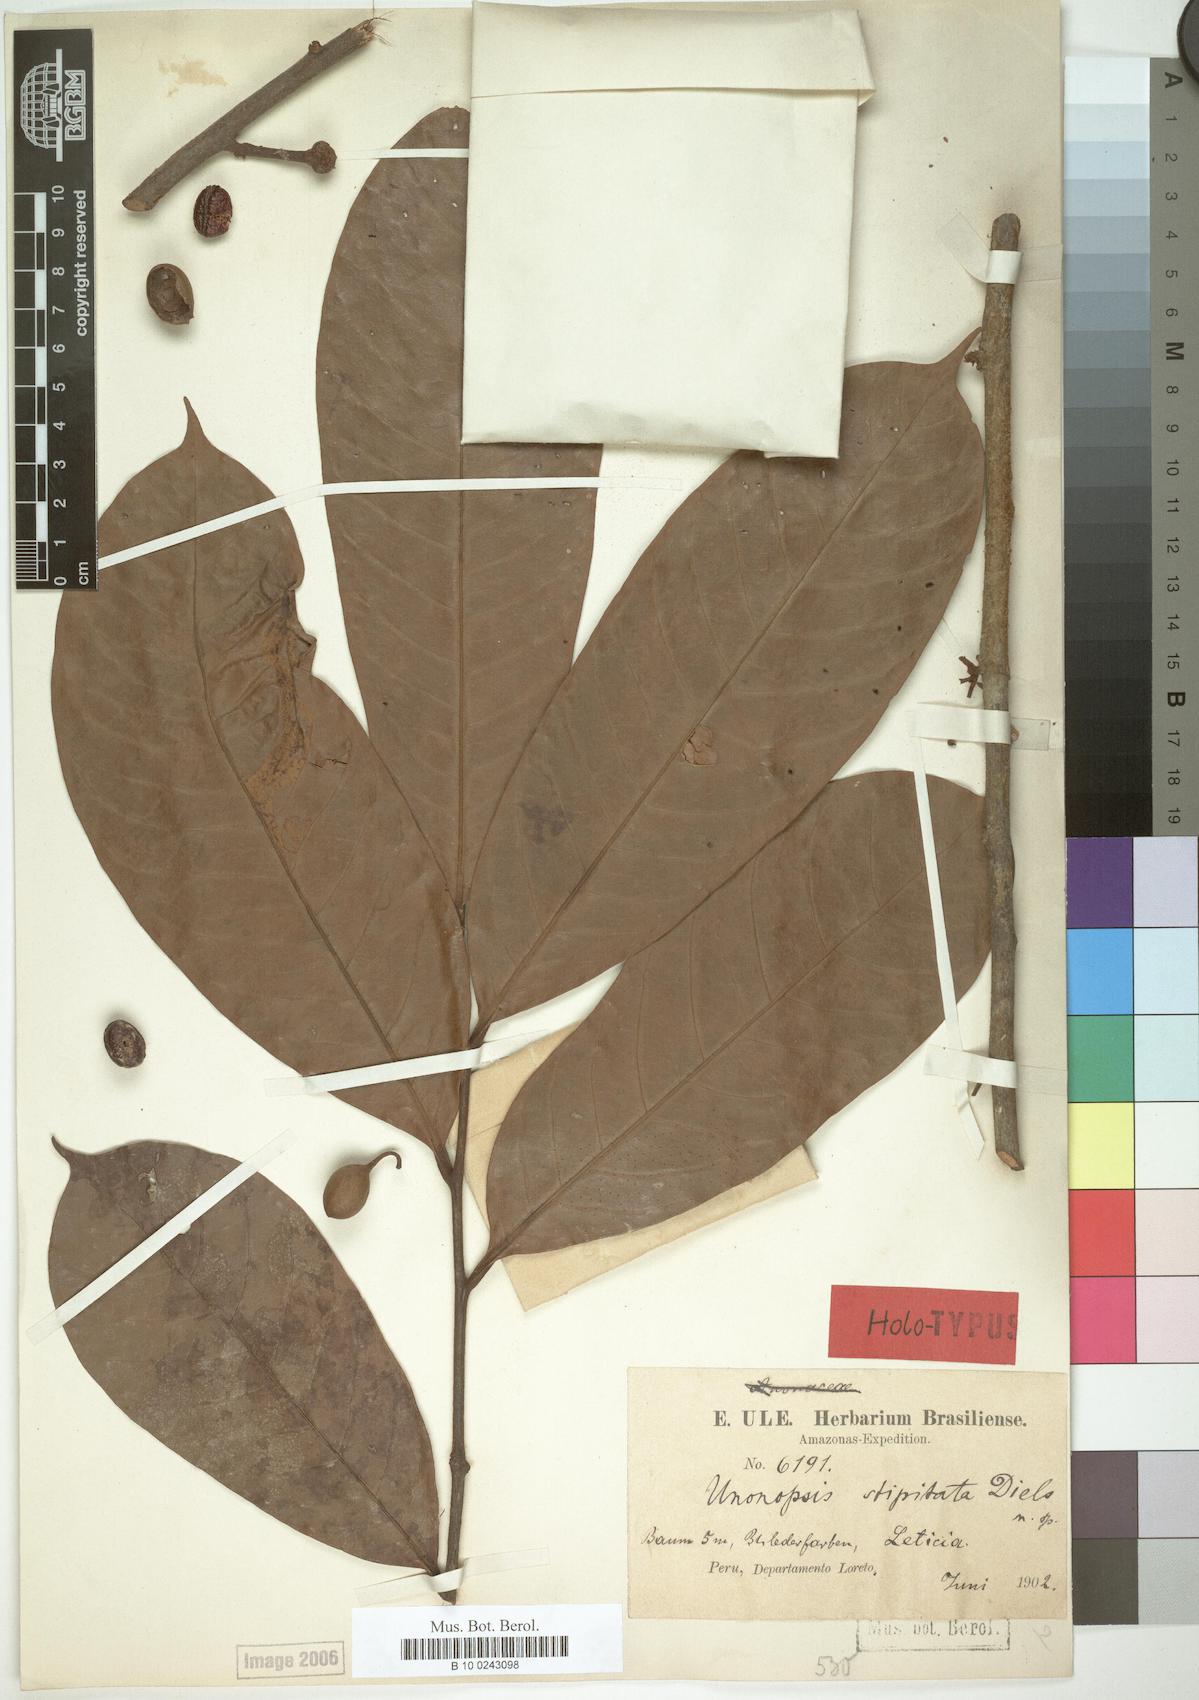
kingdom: Plantae
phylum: Tracheophyta
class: Magnoliopsida
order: Magnoliales
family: Annonaceae
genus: Unonopsis
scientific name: Unonopsis stipitata
